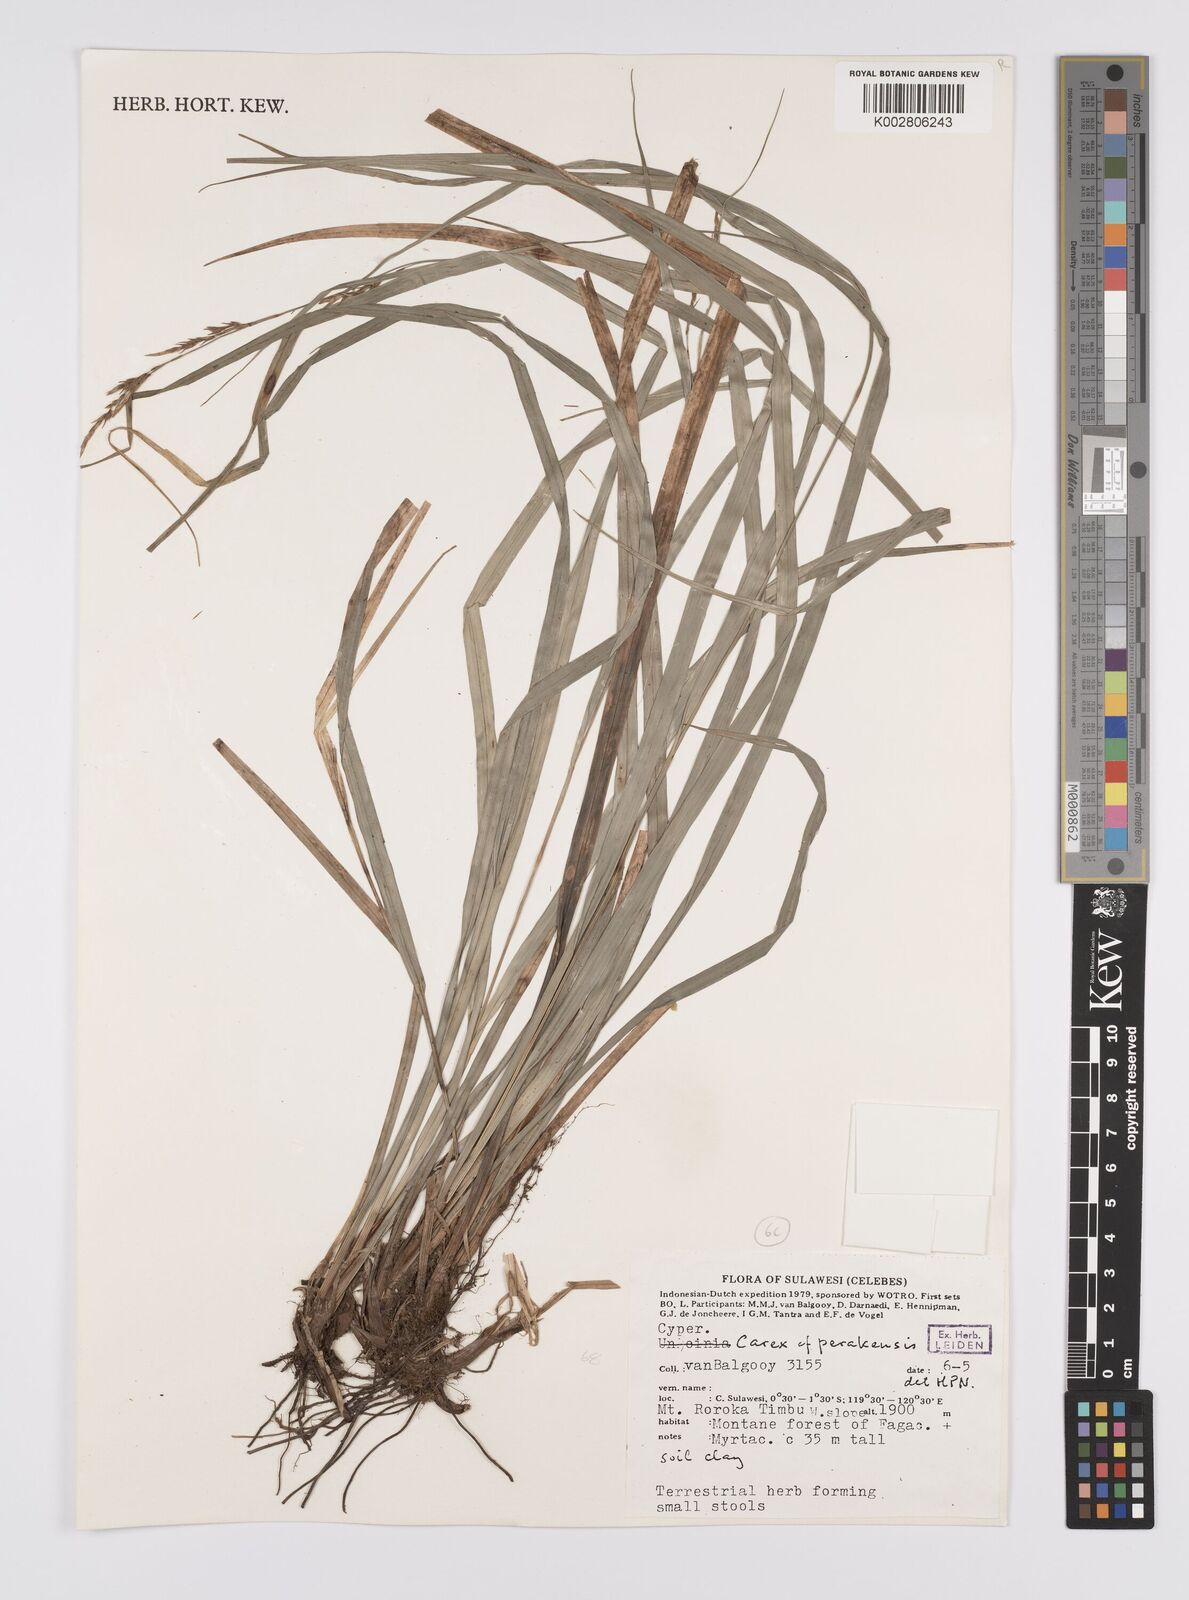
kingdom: Plantae
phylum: Tracheophyta
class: Liliopsida
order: Poales
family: Cyperaceae
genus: Carex
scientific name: Carex perakensis
